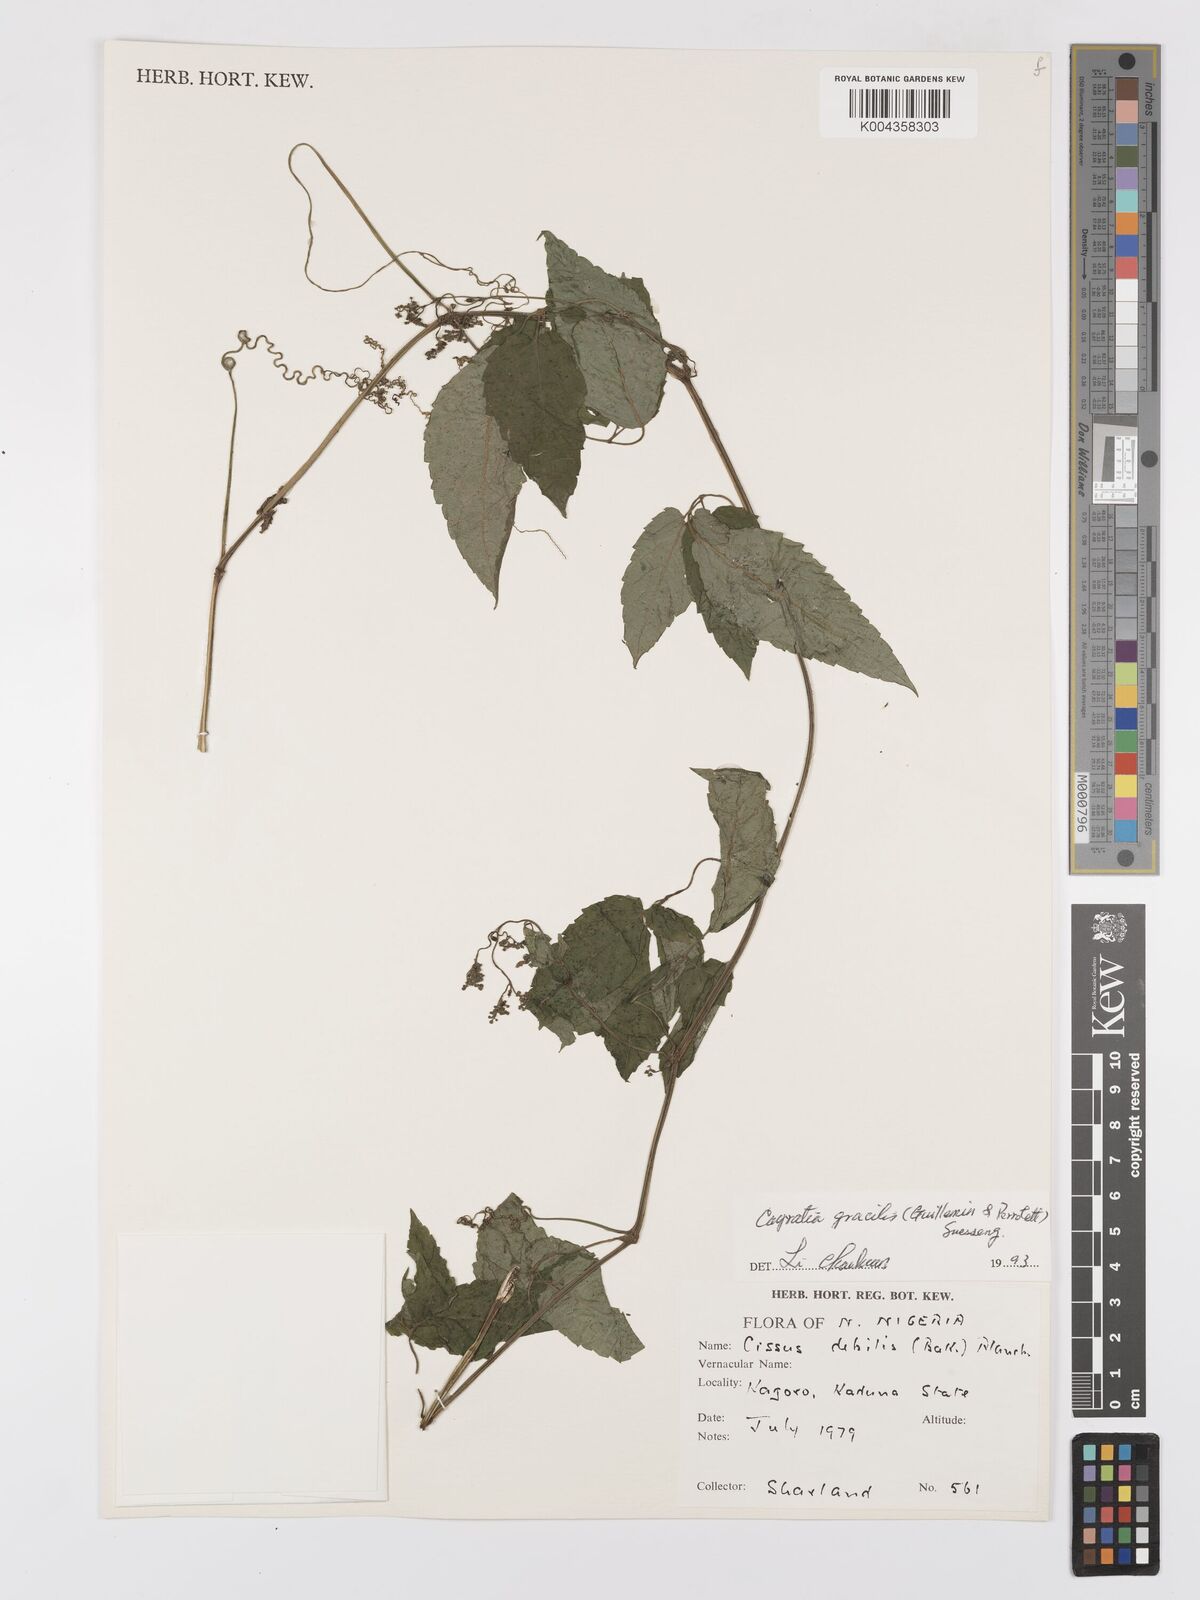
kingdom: Plantae
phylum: Tracheophyta
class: Magnoliopsida
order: Vitales
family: Vitaceae
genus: Afrocayratia
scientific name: Afrocayratia gracilis
